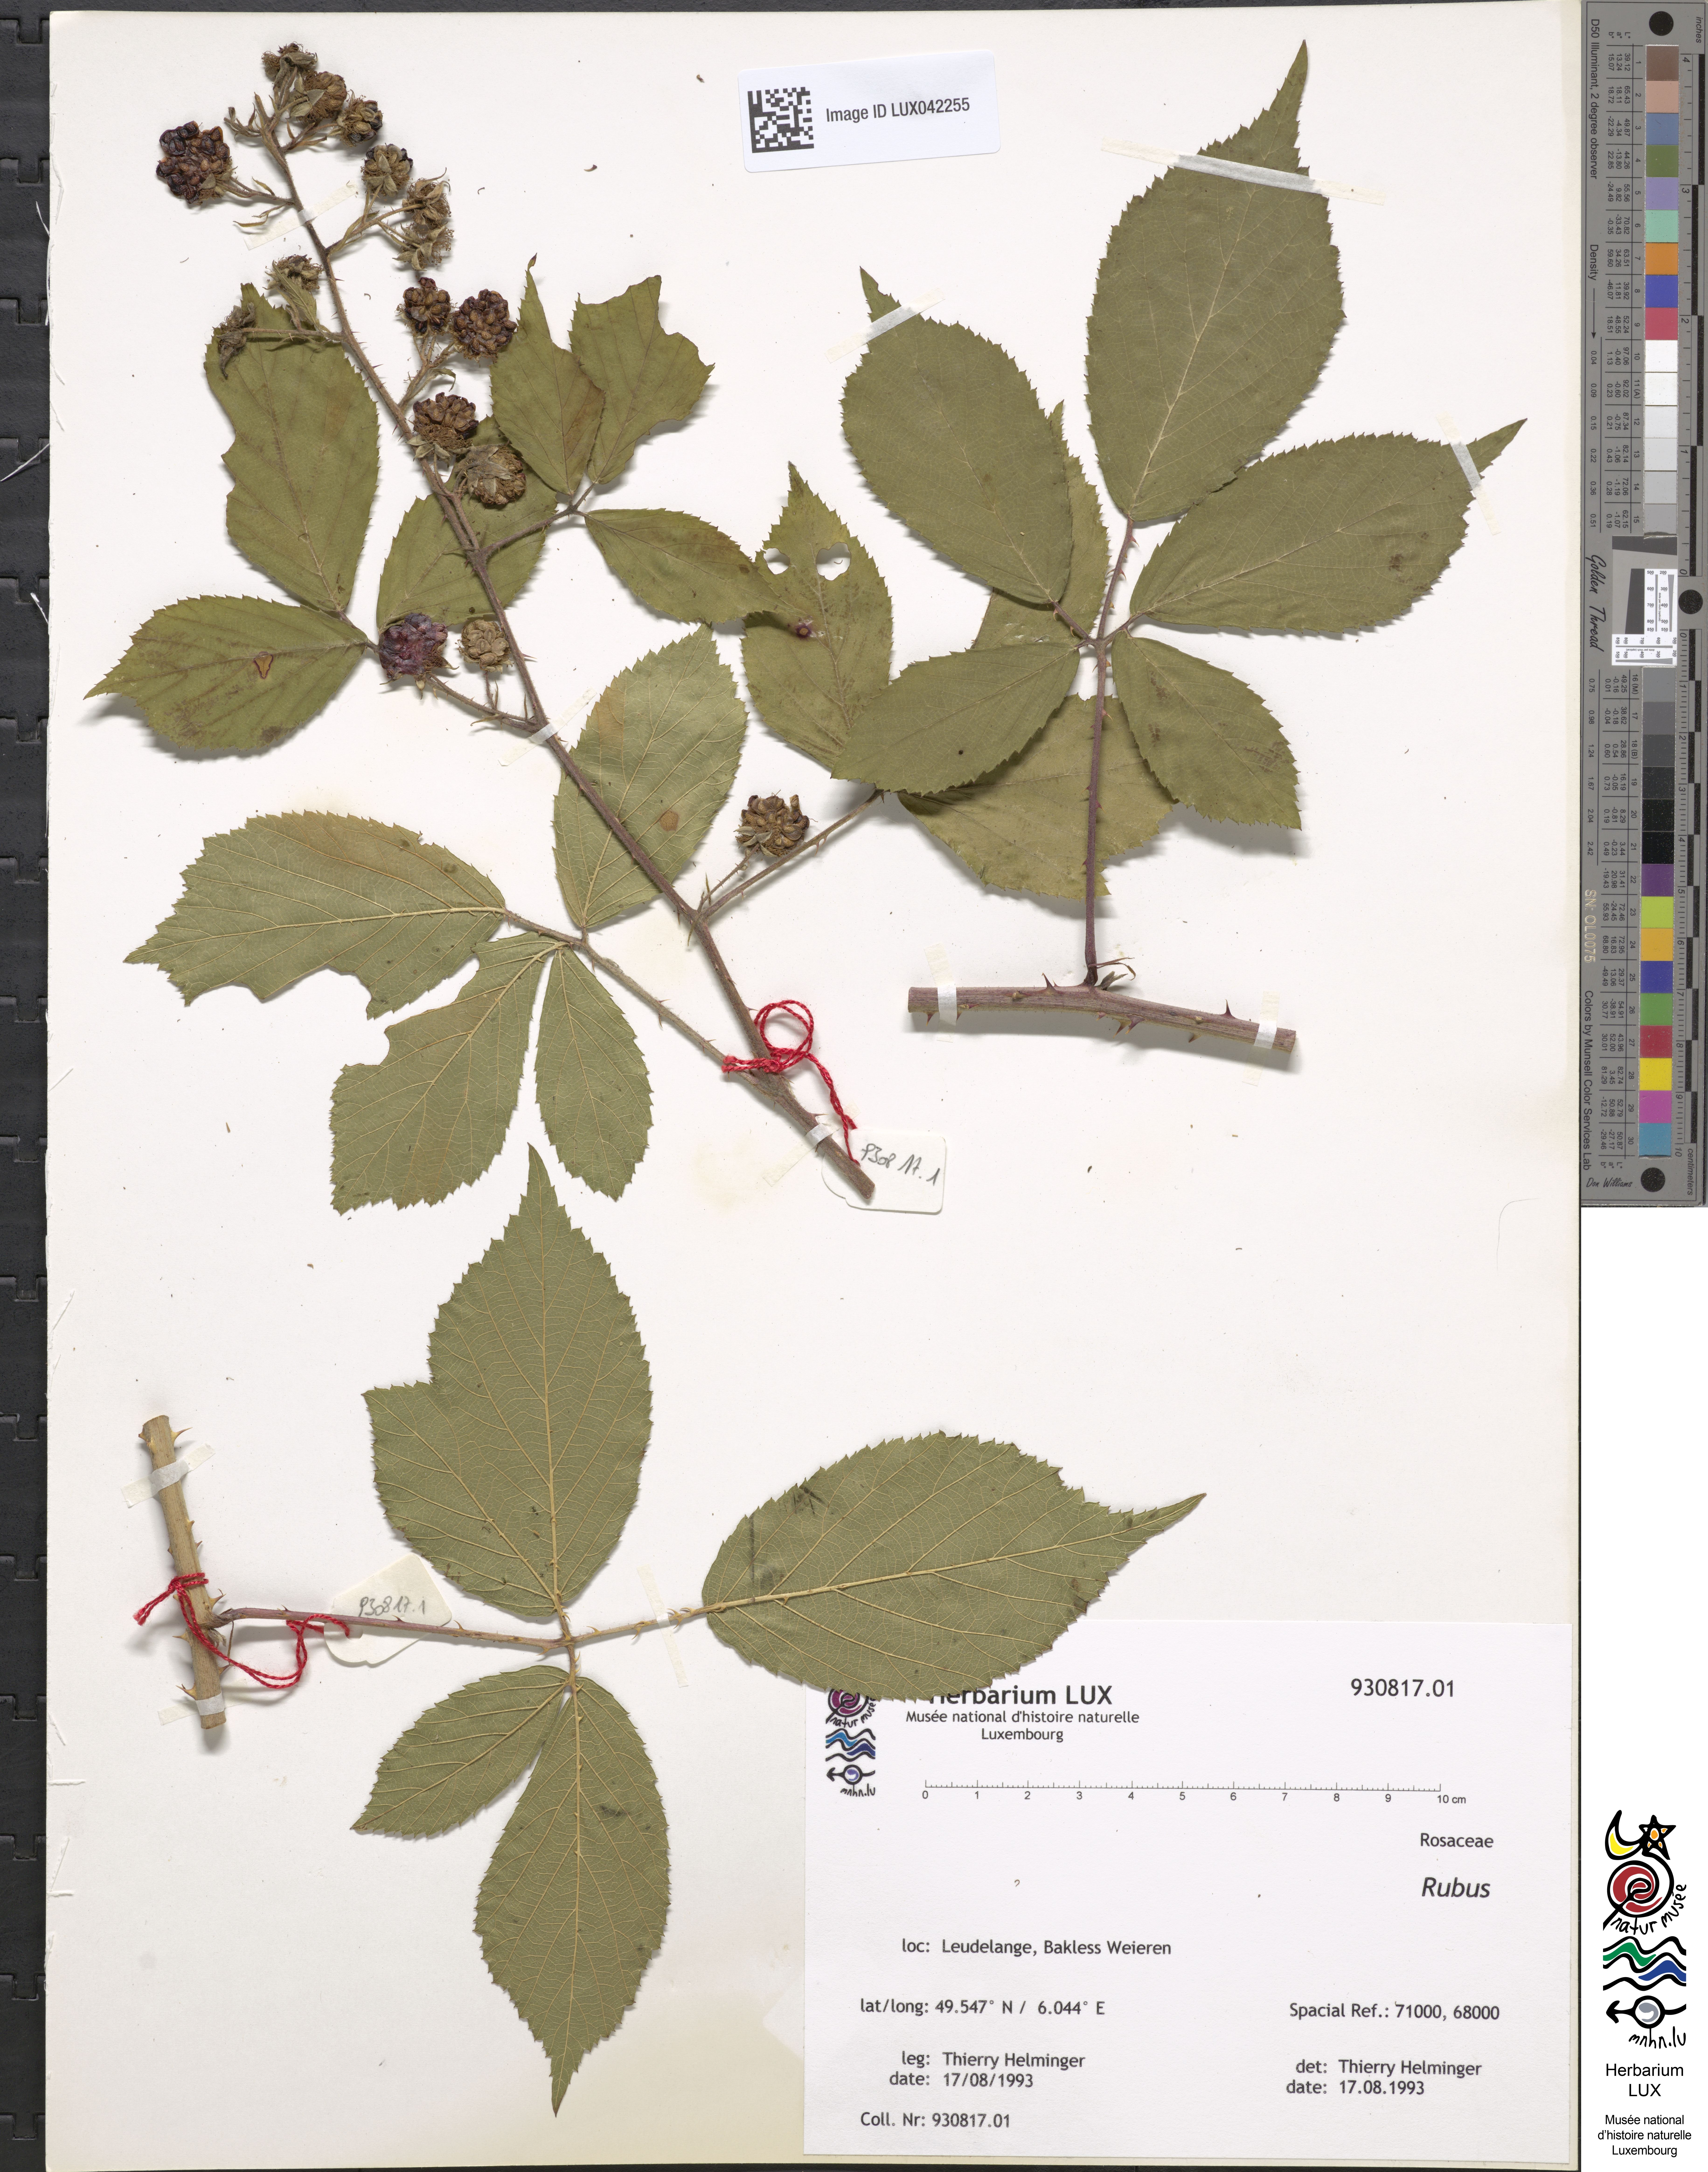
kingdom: Plantae
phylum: Tracheophyta
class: Magnoliopsida
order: Rosales
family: Rosaceae
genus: Rubus
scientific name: Rubus
